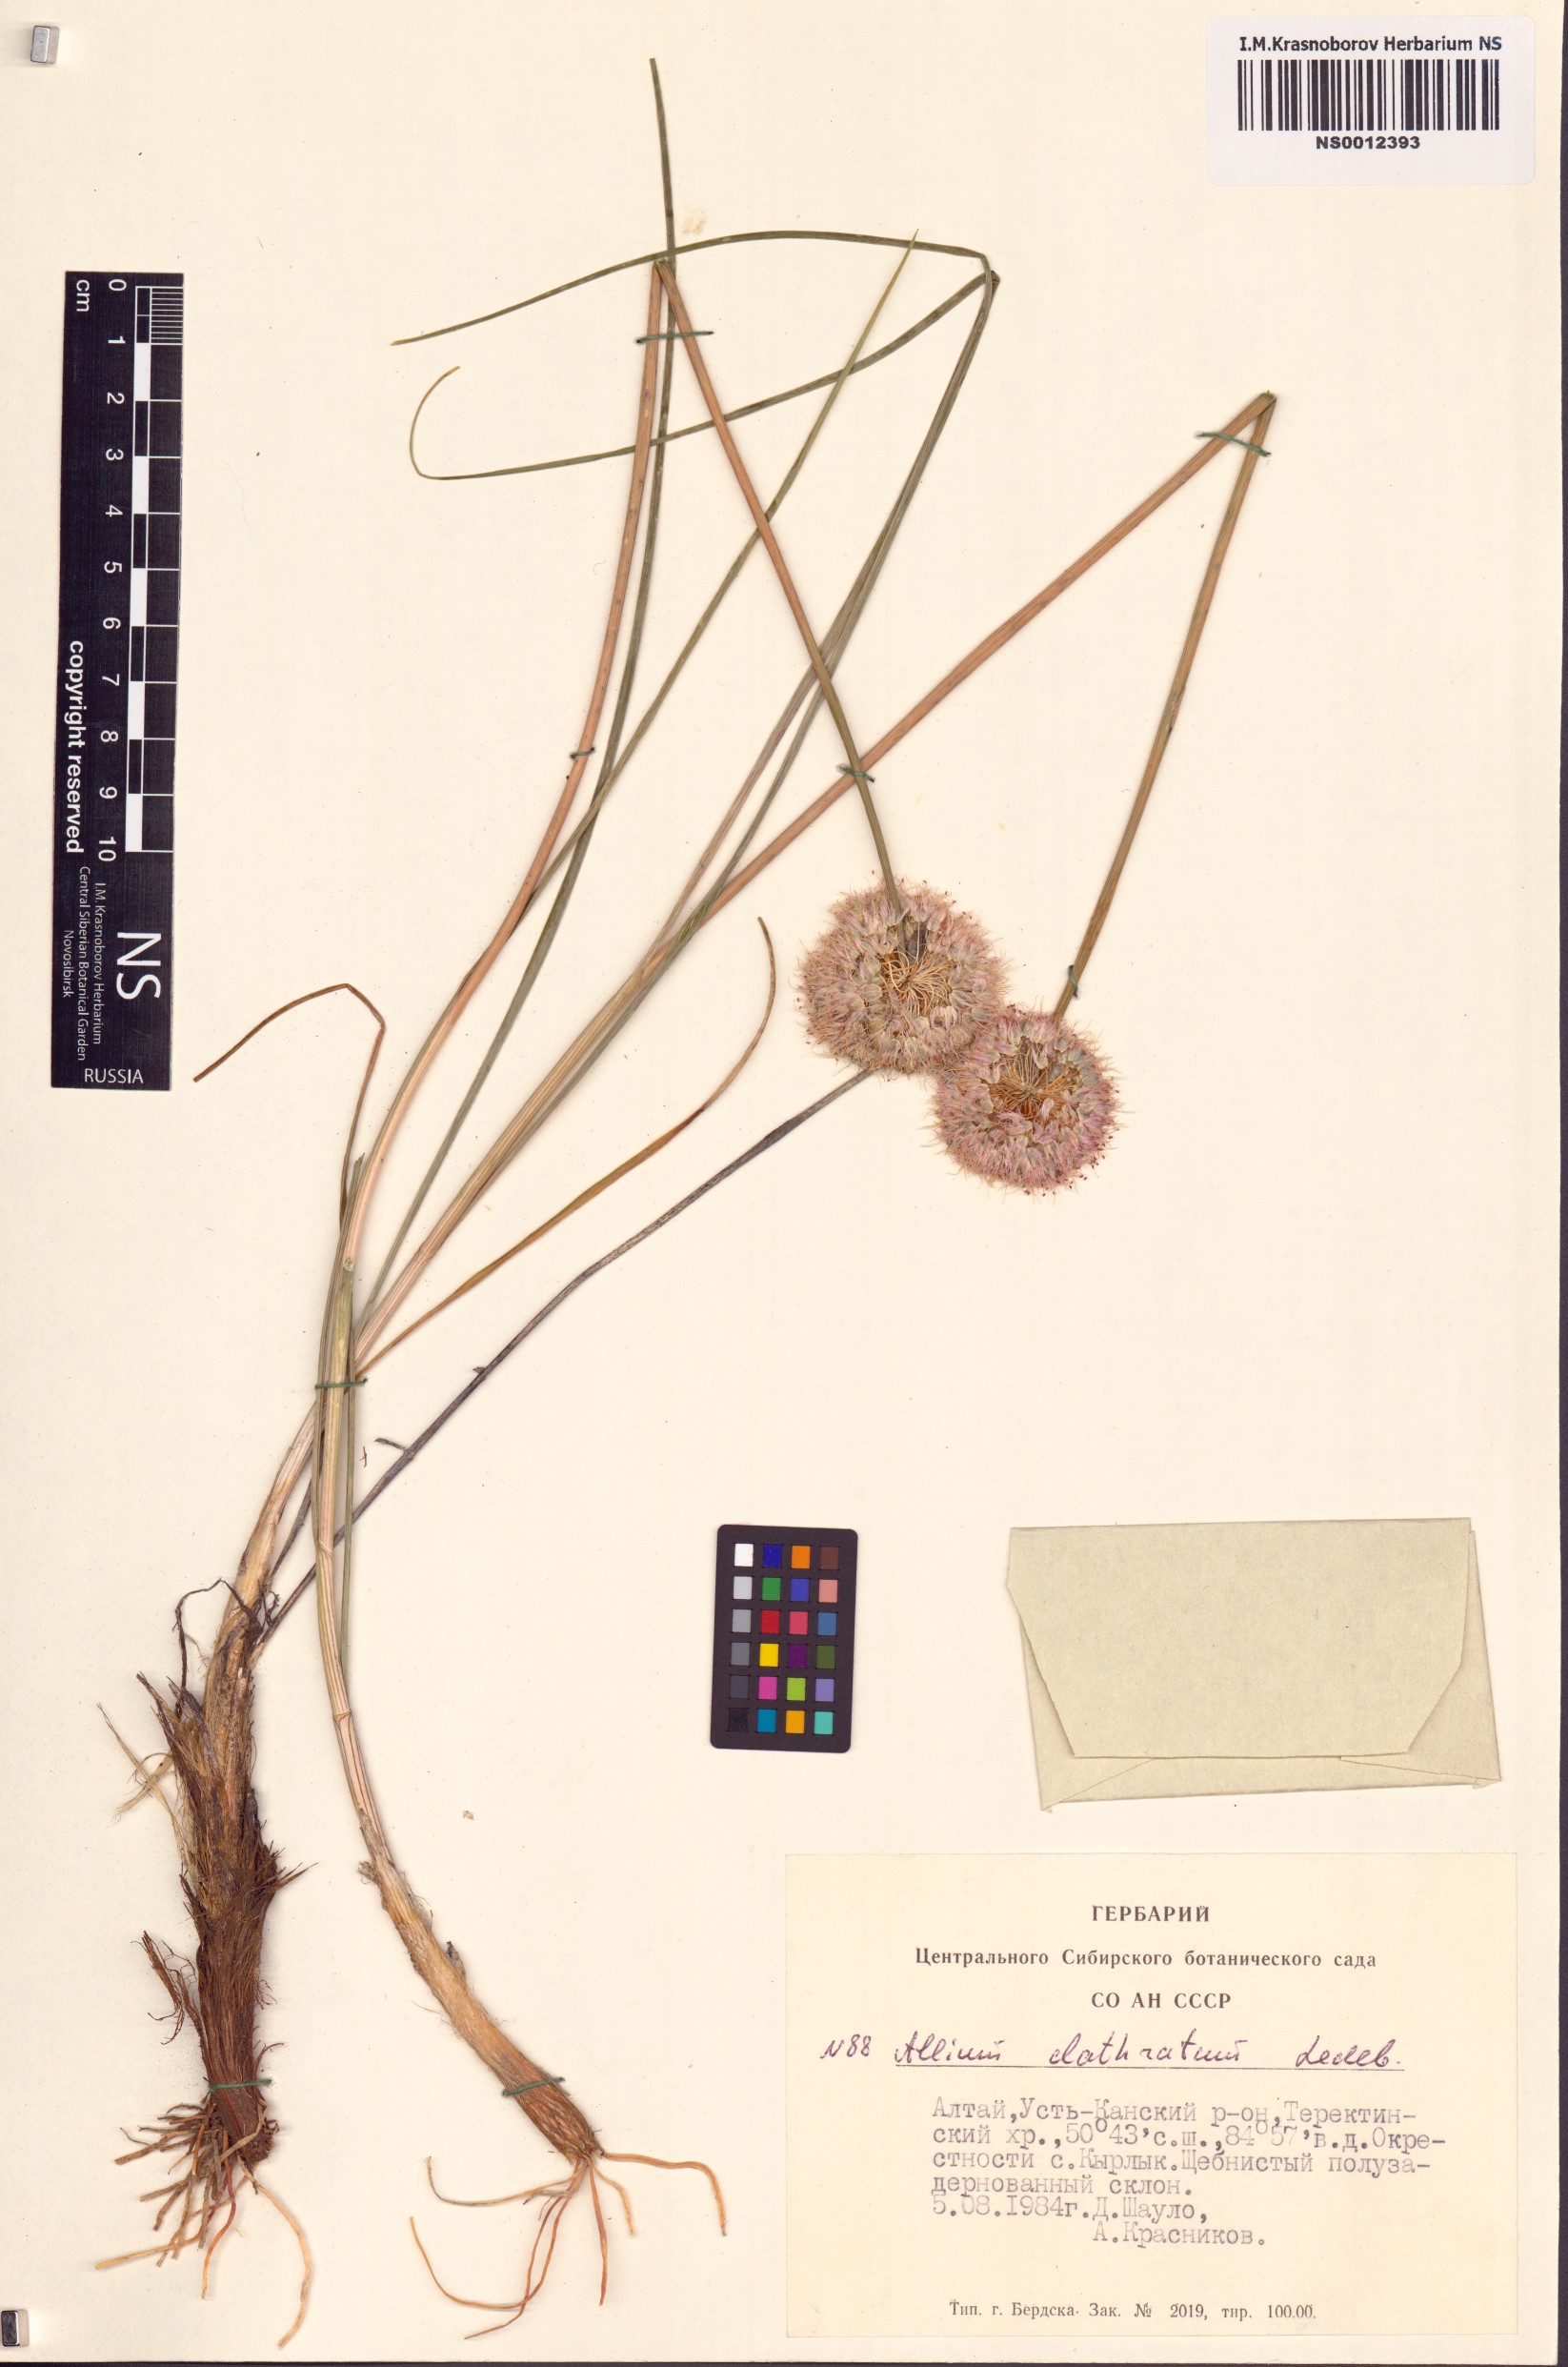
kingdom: Plantae
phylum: Tracheophyta
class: Liliopsida
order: Asparagales
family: Amaryllidaceae
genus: Allium
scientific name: Allium clathratum
